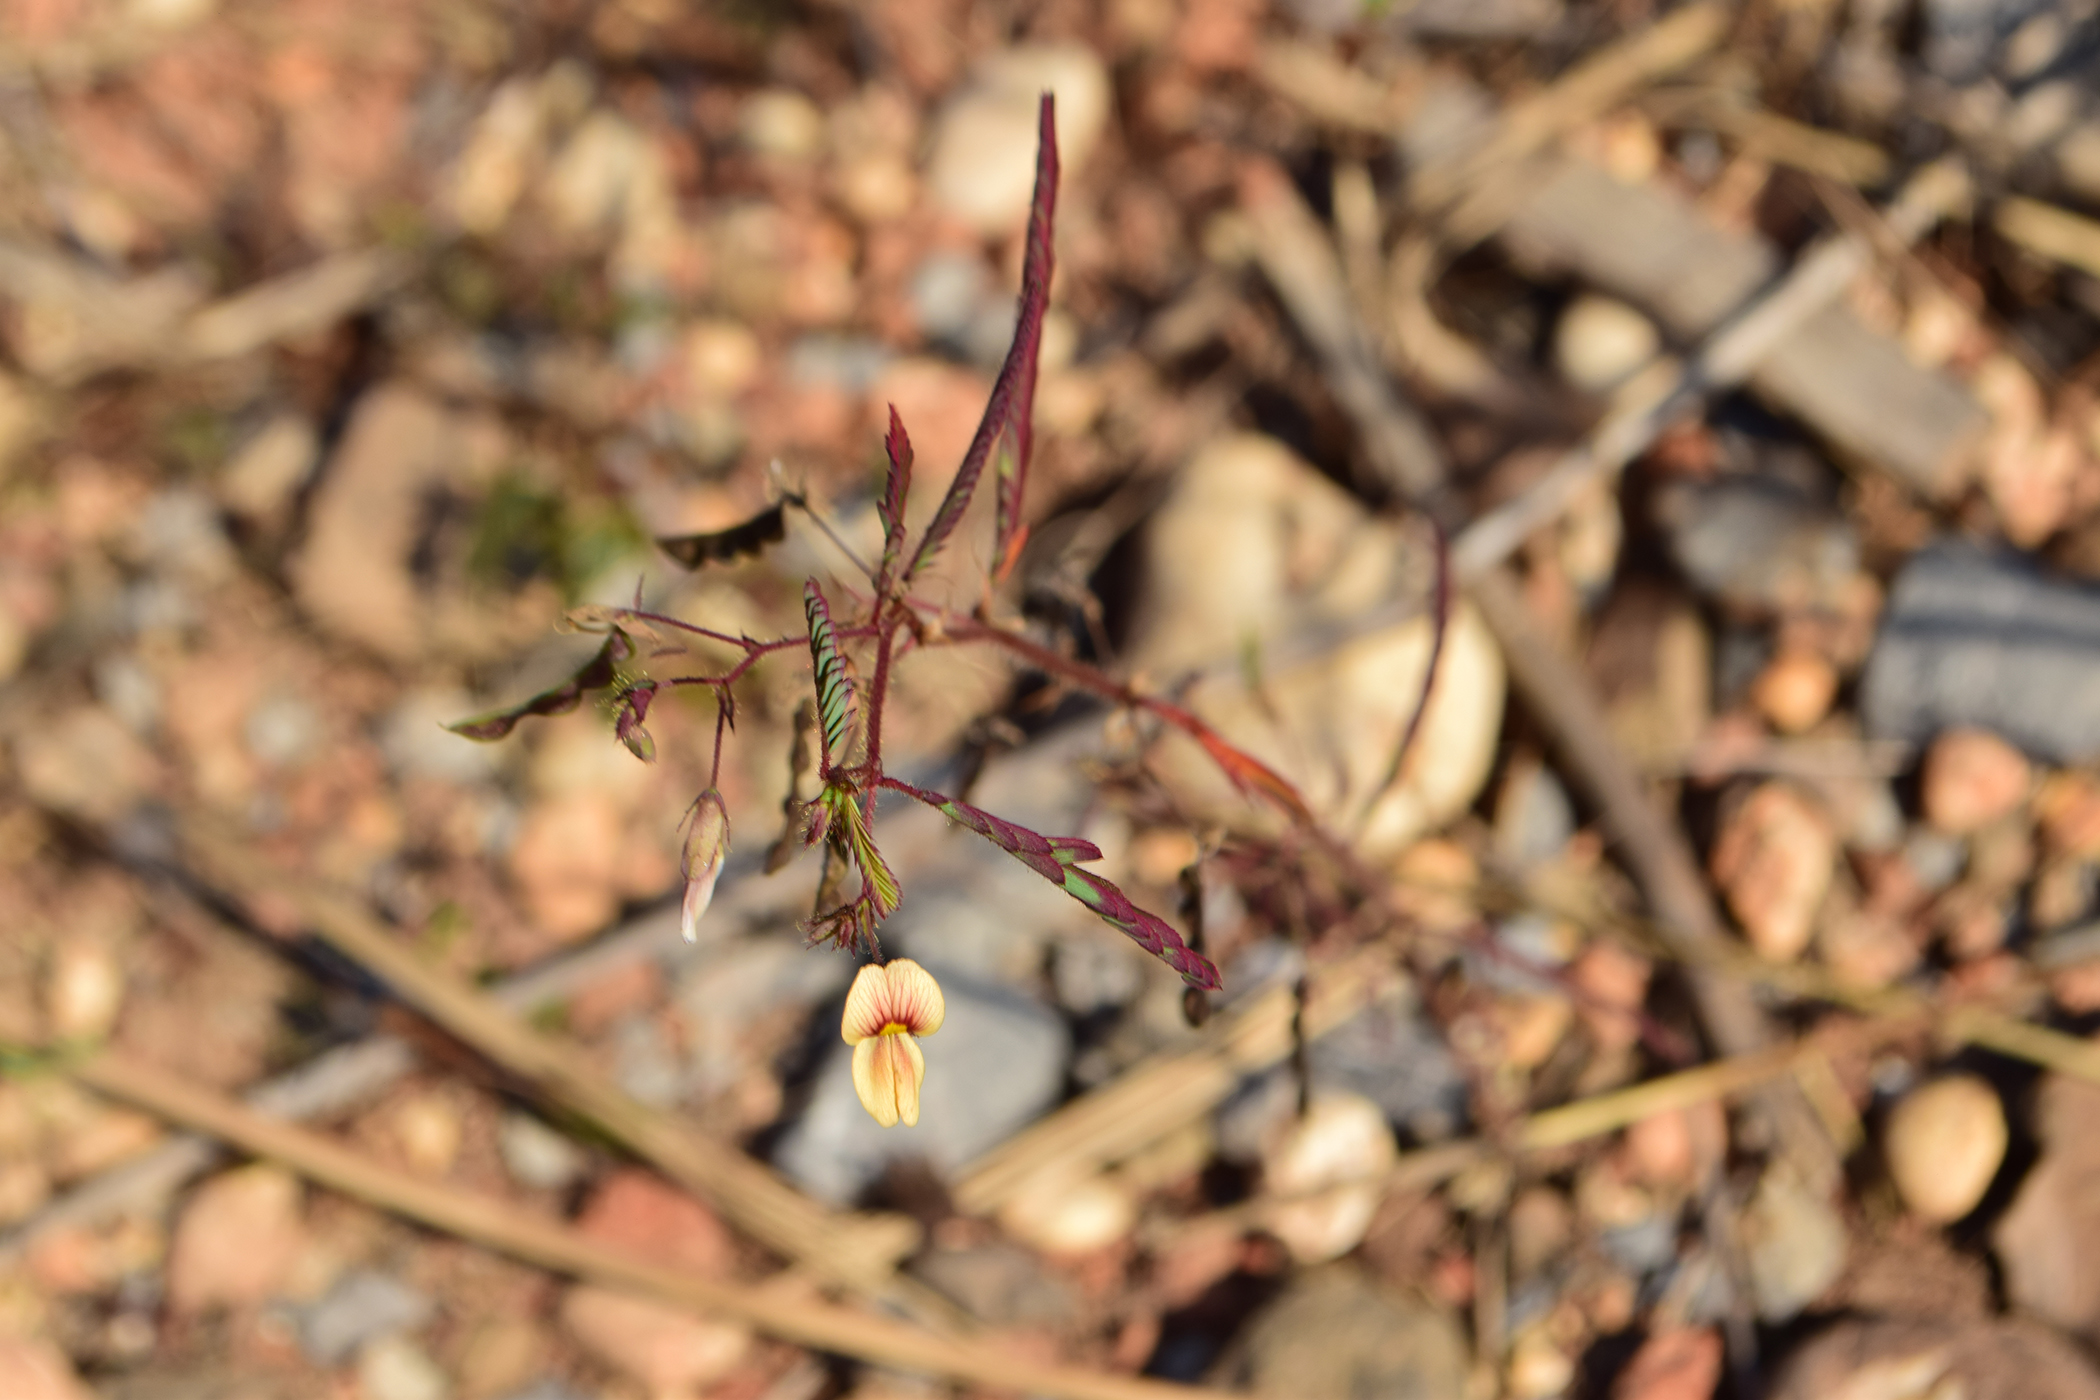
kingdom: Plantae
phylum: Tracheophyta
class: Magnoliopsida
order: Fabales
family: Fabaceae
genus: Aeschynomene
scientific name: Aeschynomene americana
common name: Joint-vetch
